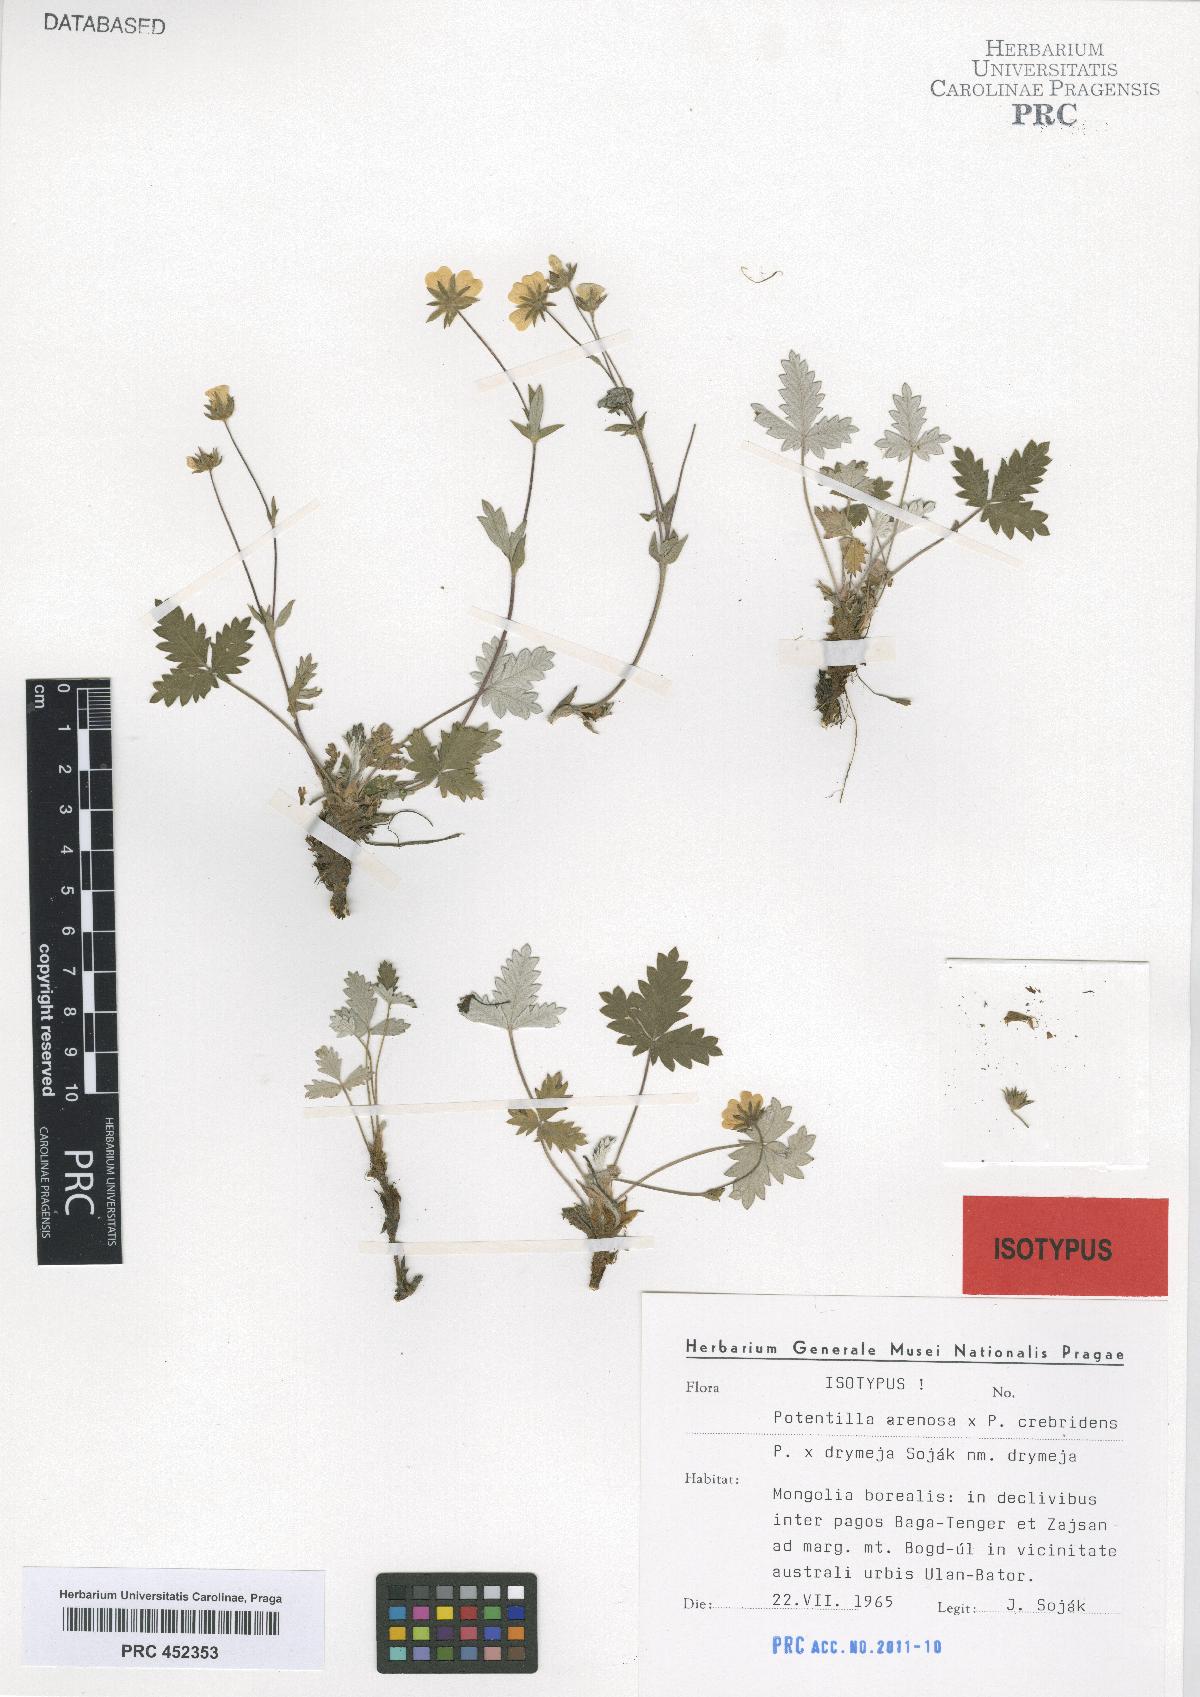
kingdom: Plantae
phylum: Tracheophyta
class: Magnoliopsida
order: Rosales
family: Rosaceae
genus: Potentilla
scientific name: Potentilla prostrata
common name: Prostrate cinquefoil
